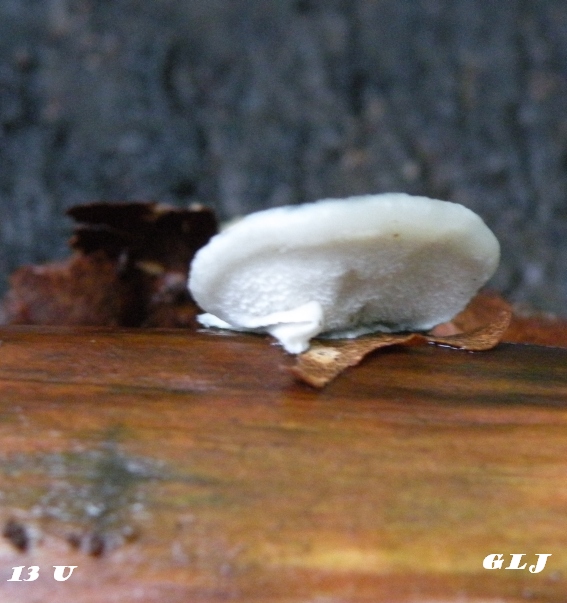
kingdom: Fungi
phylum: Basidiomycota
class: Agaricomycetes
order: Polyporales
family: Polyporaceae
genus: Cyanosporus
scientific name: Cyanosporus caesius
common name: blålig kødporesvamp
